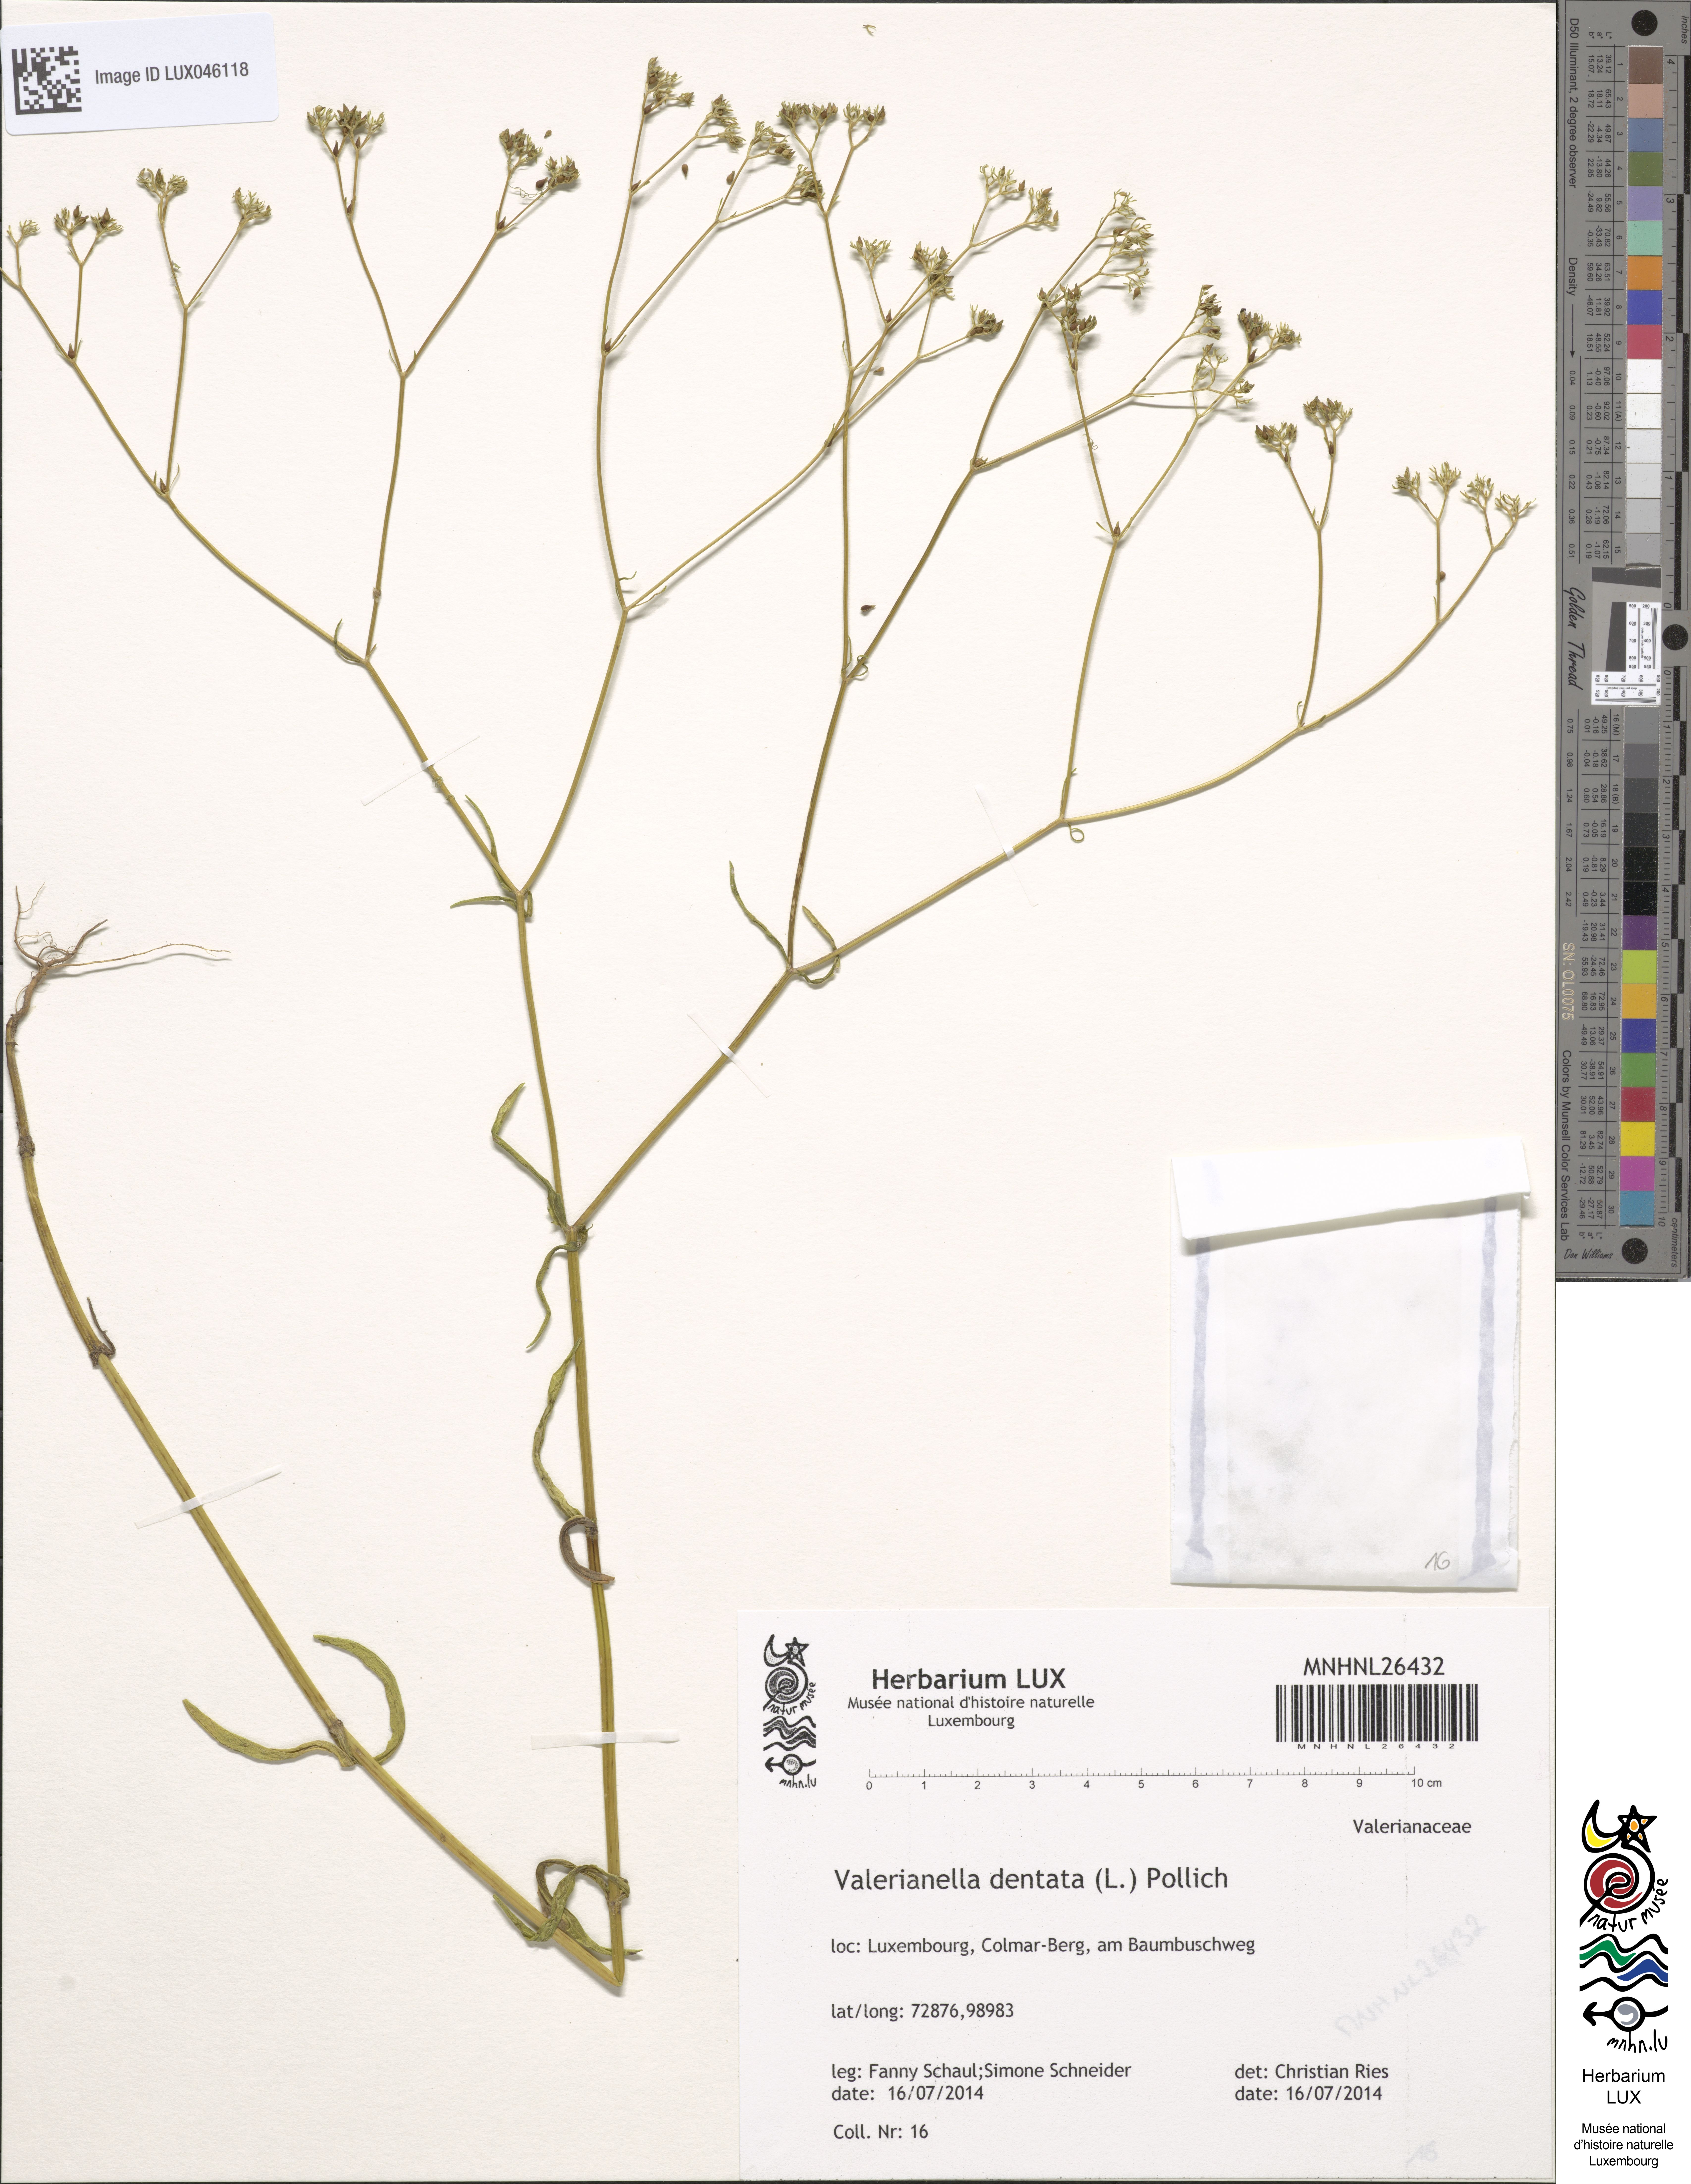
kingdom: Plantae
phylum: Tracheophyta
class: Magnoliopsida
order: Dipsacales
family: Caprifoliaceae
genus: Valerianella
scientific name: Valerianella dentata
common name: Narrow-fruited cornsalad
